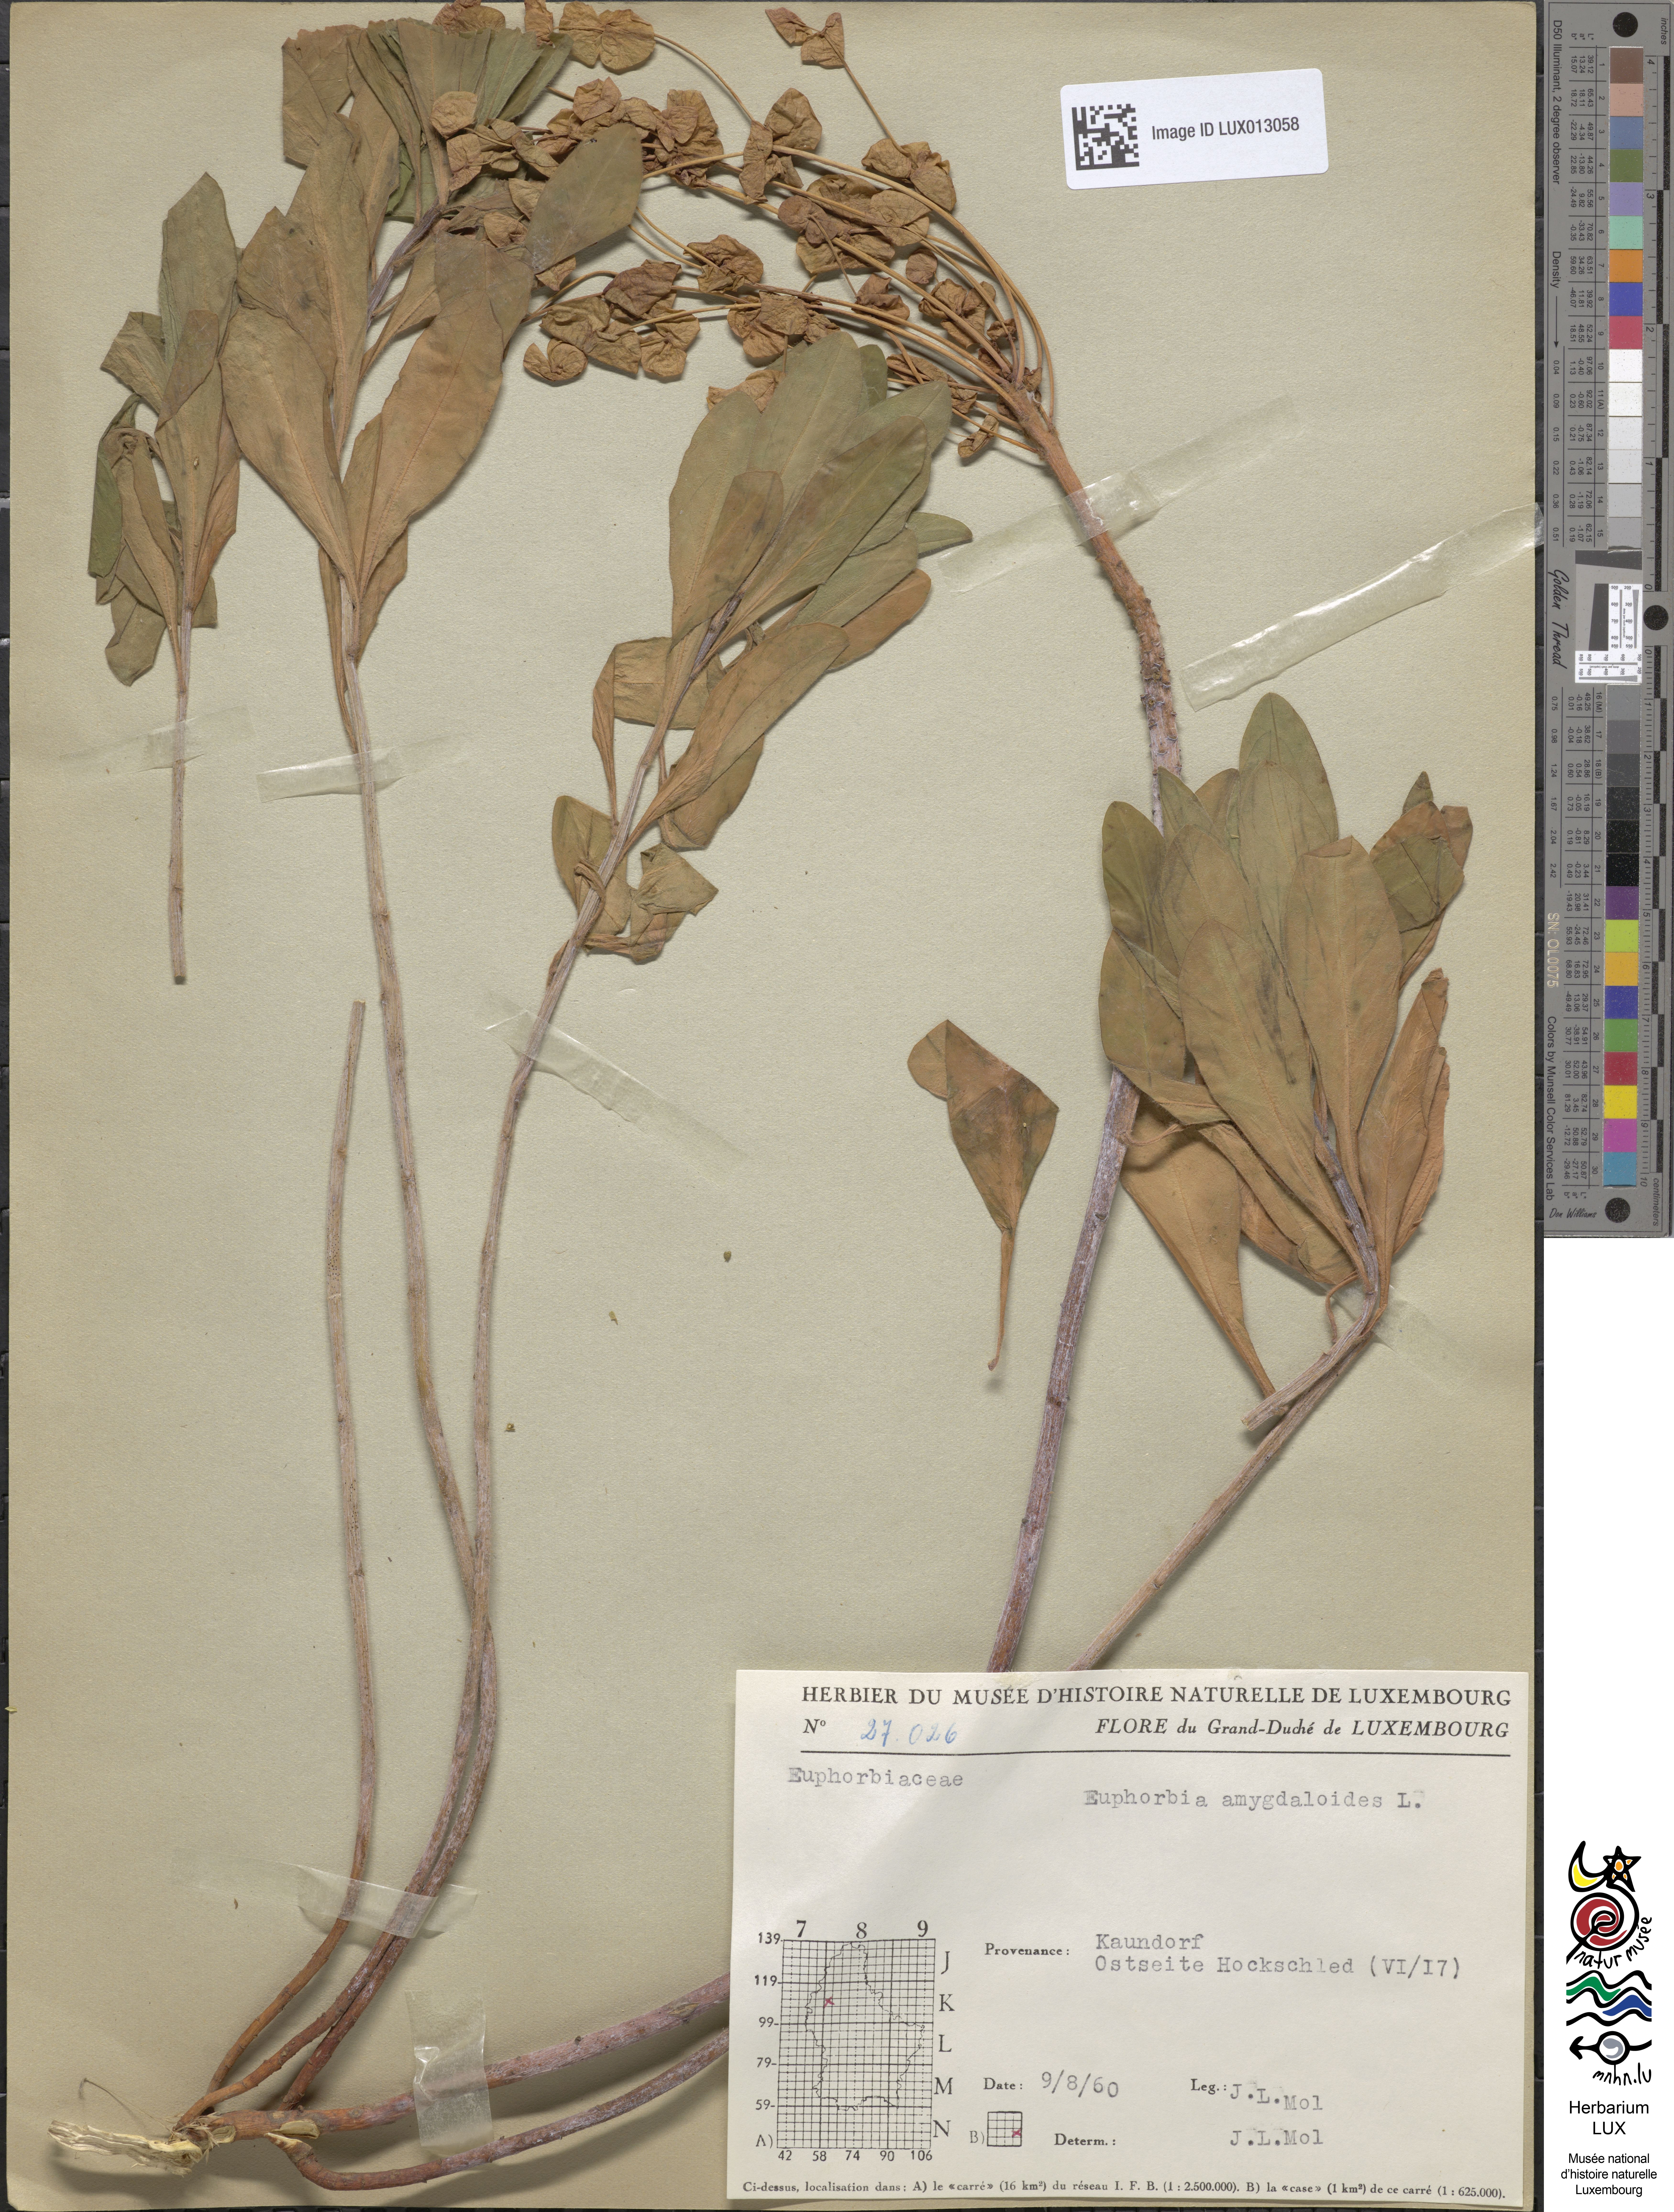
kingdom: Plantae
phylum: Tracheophyta
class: Magnoliopsida
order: Malpighiales
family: Euphorbiaceae
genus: Euphorbia
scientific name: Euphorbia amygdaloides
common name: Wood spurge
